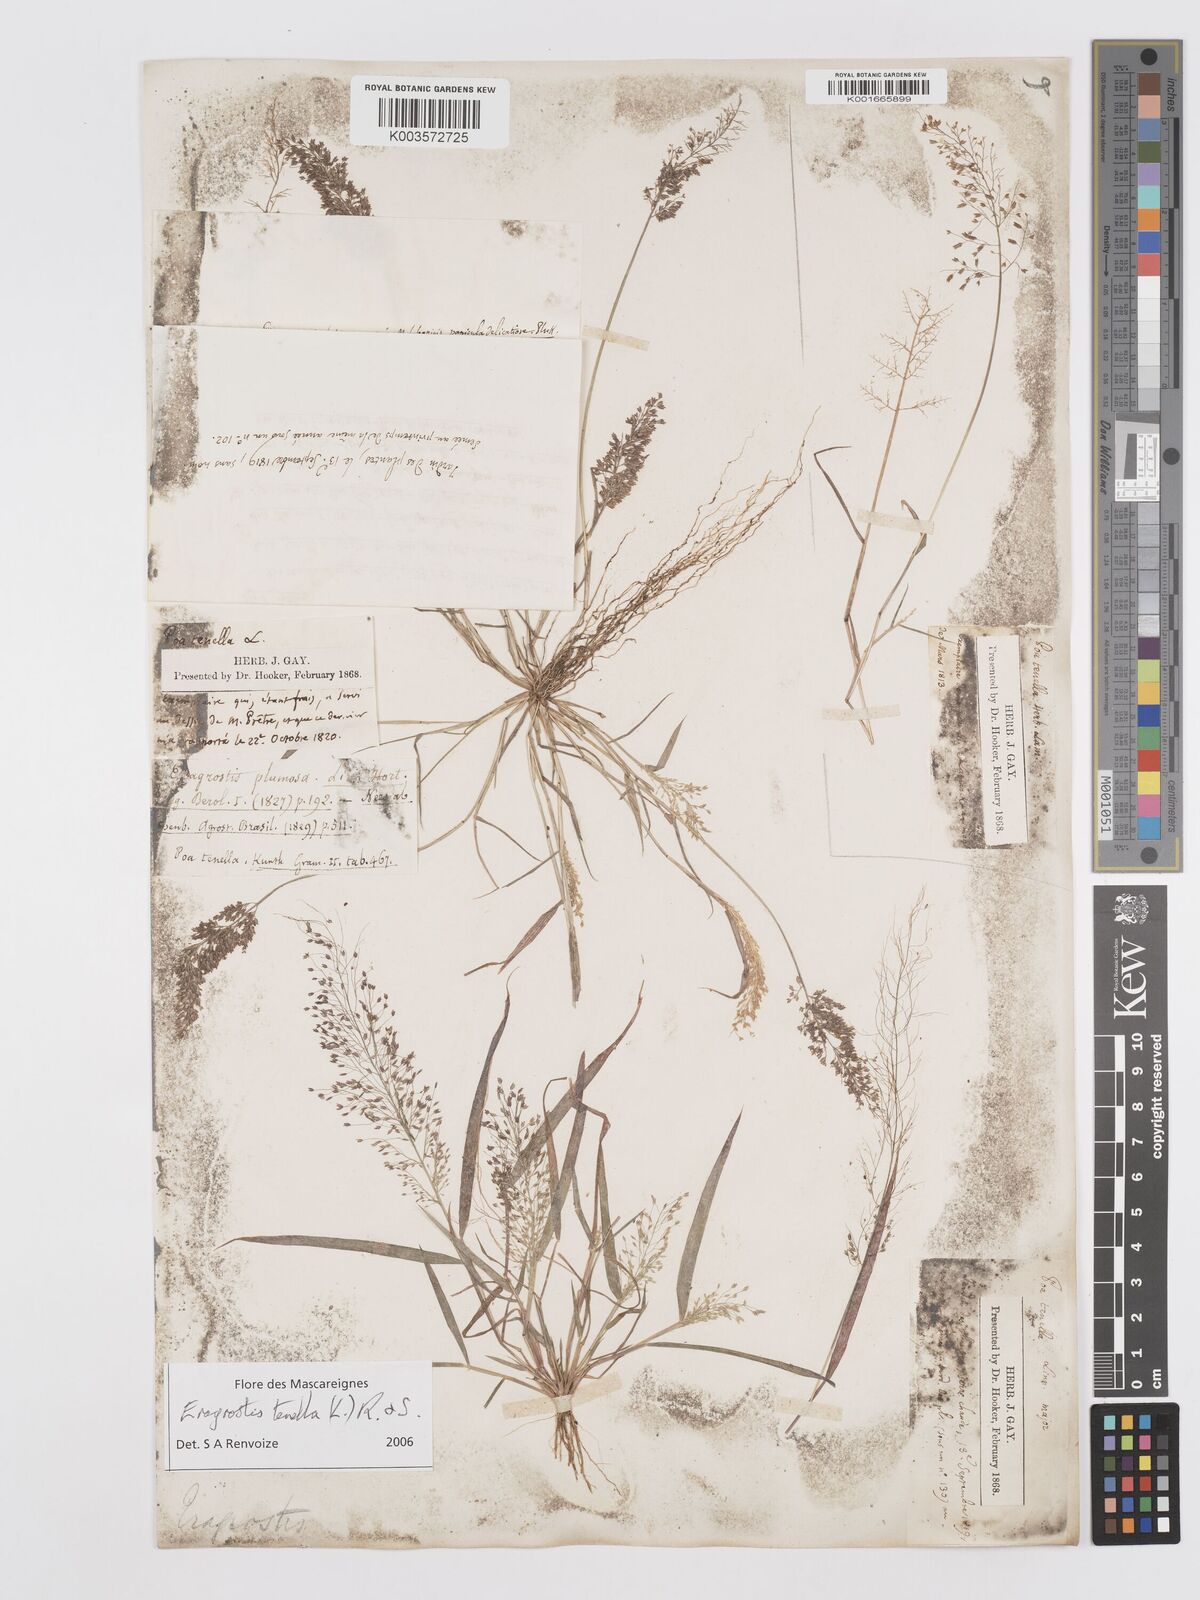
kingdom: Plantae
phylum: Tracheophyta
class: Liliopsida
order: Poales
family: Poaceae
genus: Eragrostis
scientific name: Eragrostis tenella
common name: Japanese lovegrass
